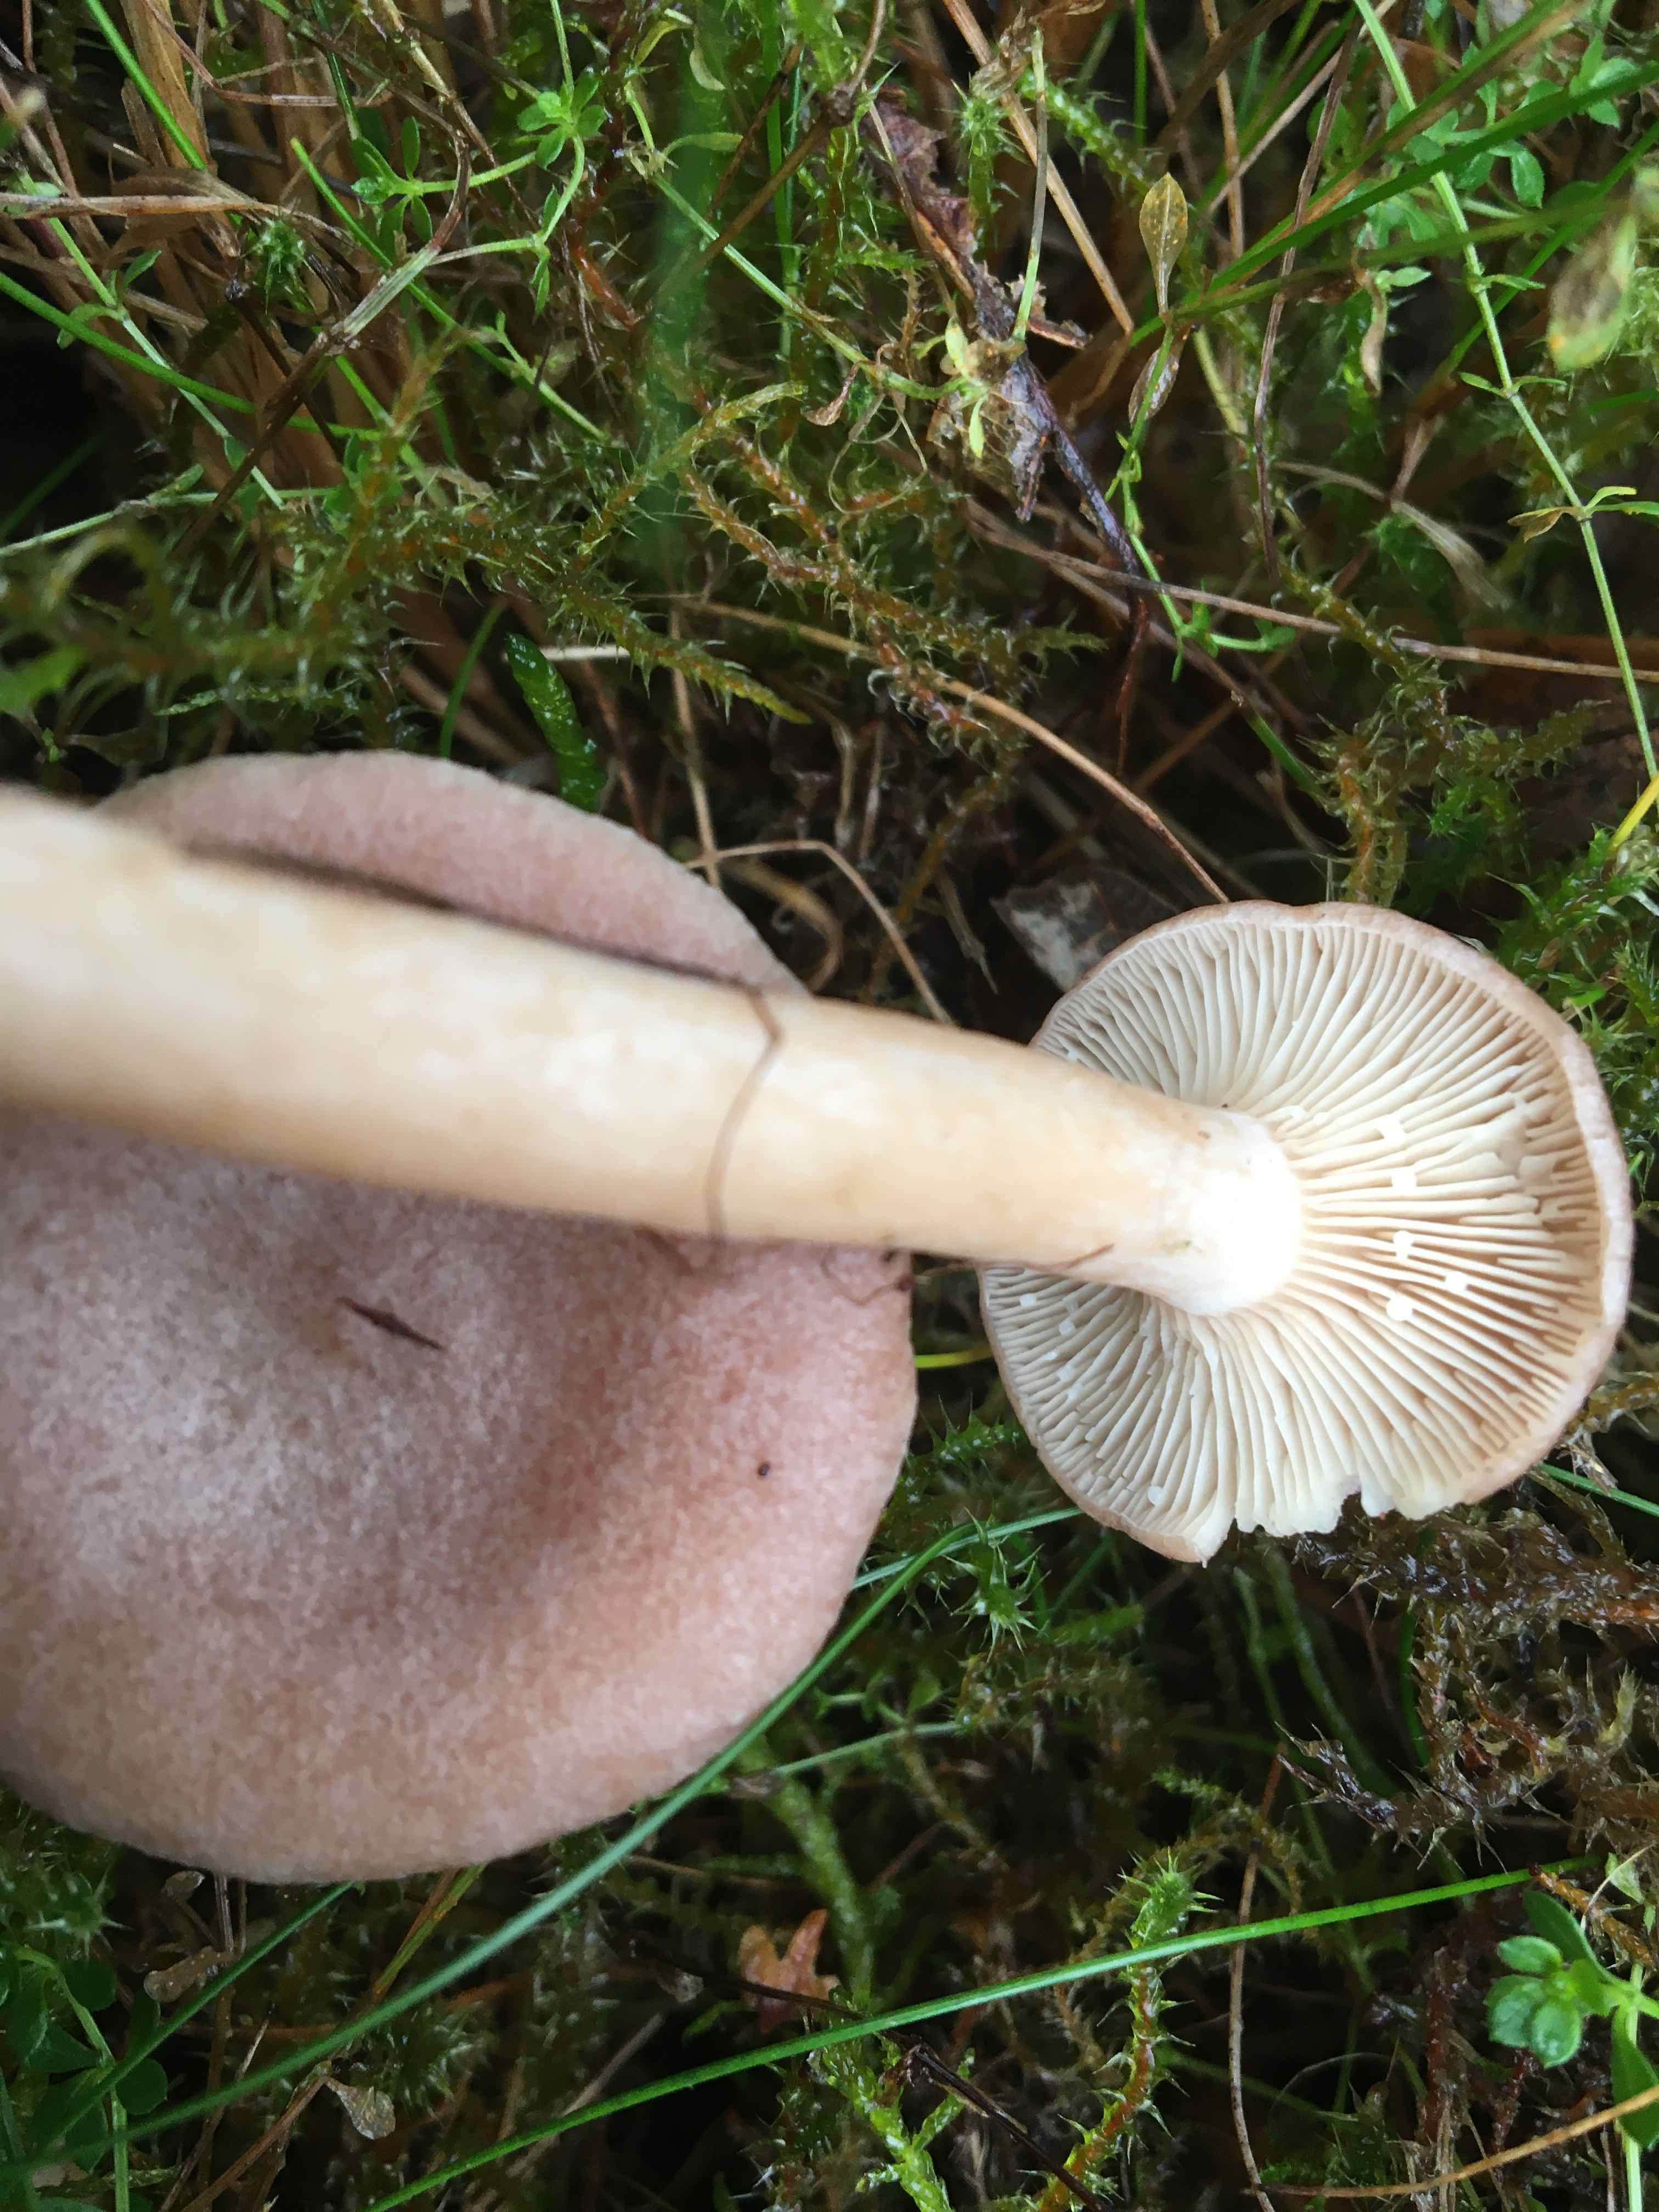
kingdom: Fungi
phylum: Basidiomycota
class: Agaricomycetes
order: Russulales
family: Russulaceae
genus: Lactarius
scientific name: Lactarius glyciosmus
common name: kokos-mælkehat
